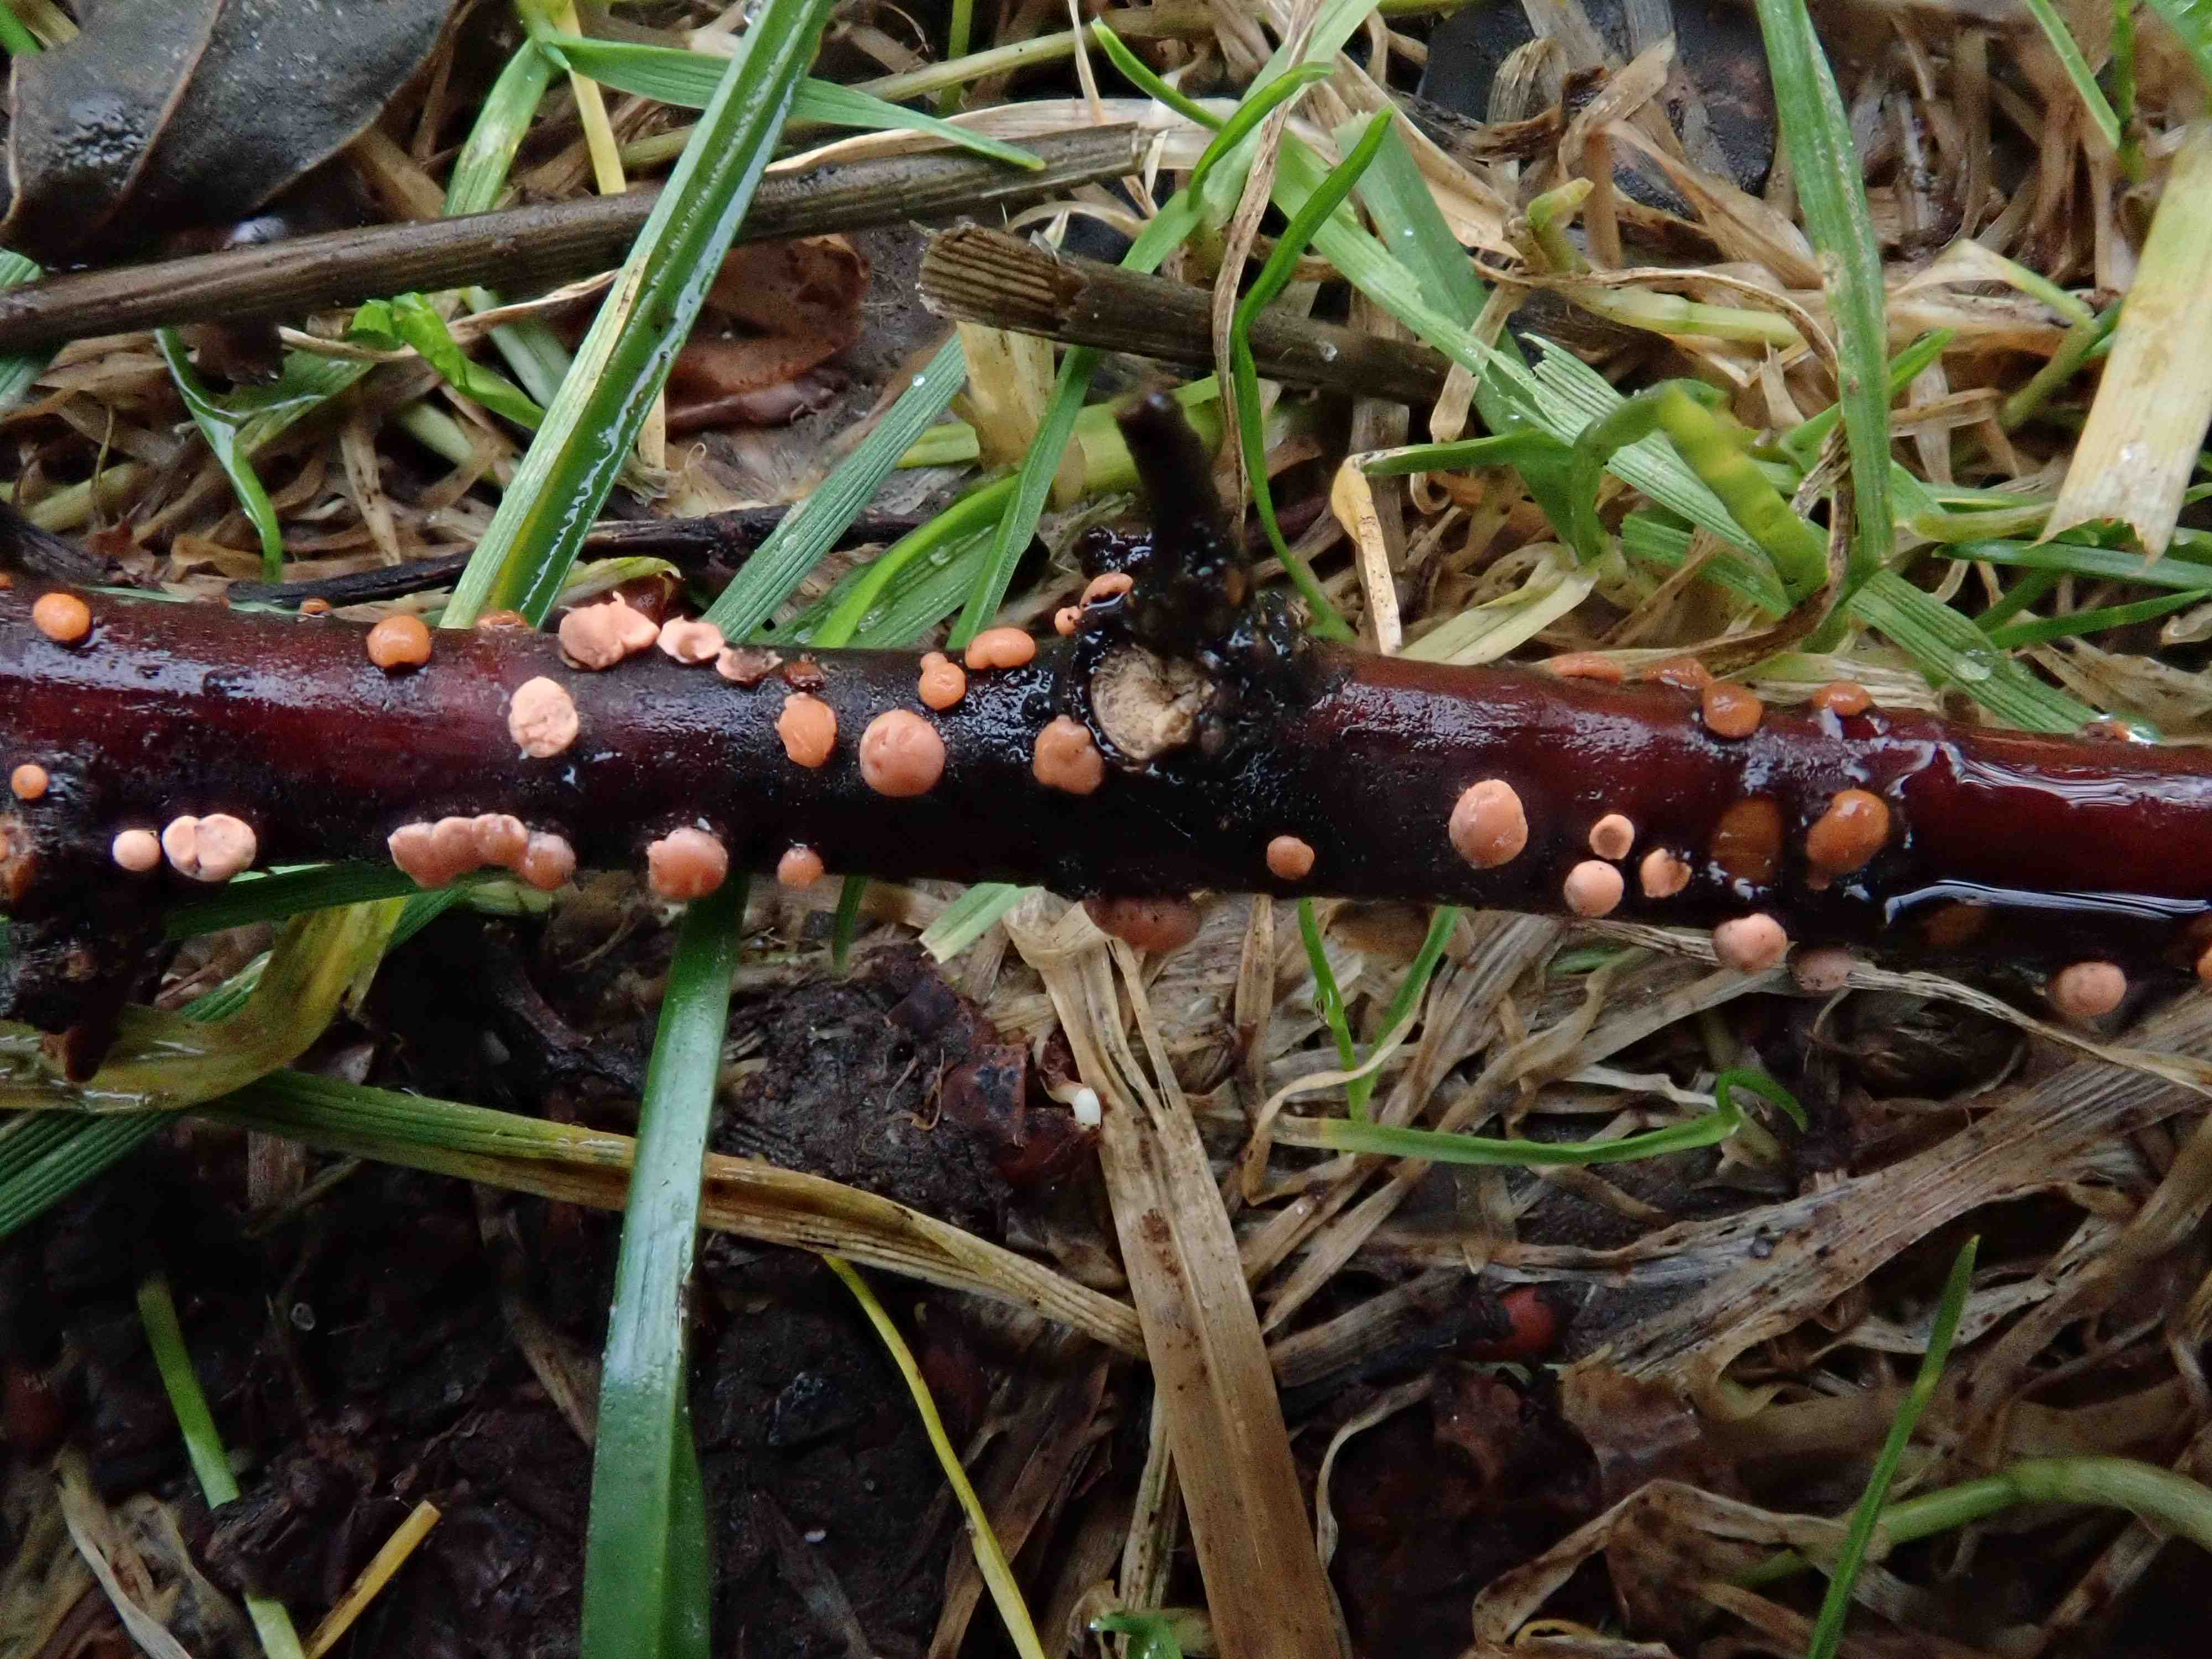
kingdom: Fungi
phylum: Ascomycota
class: Sordariomycetes
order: Hypocreales
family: Nectriaceae
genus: Nectria
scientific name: Nectria cinnabarina
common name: almindelig cinnobersvamp
